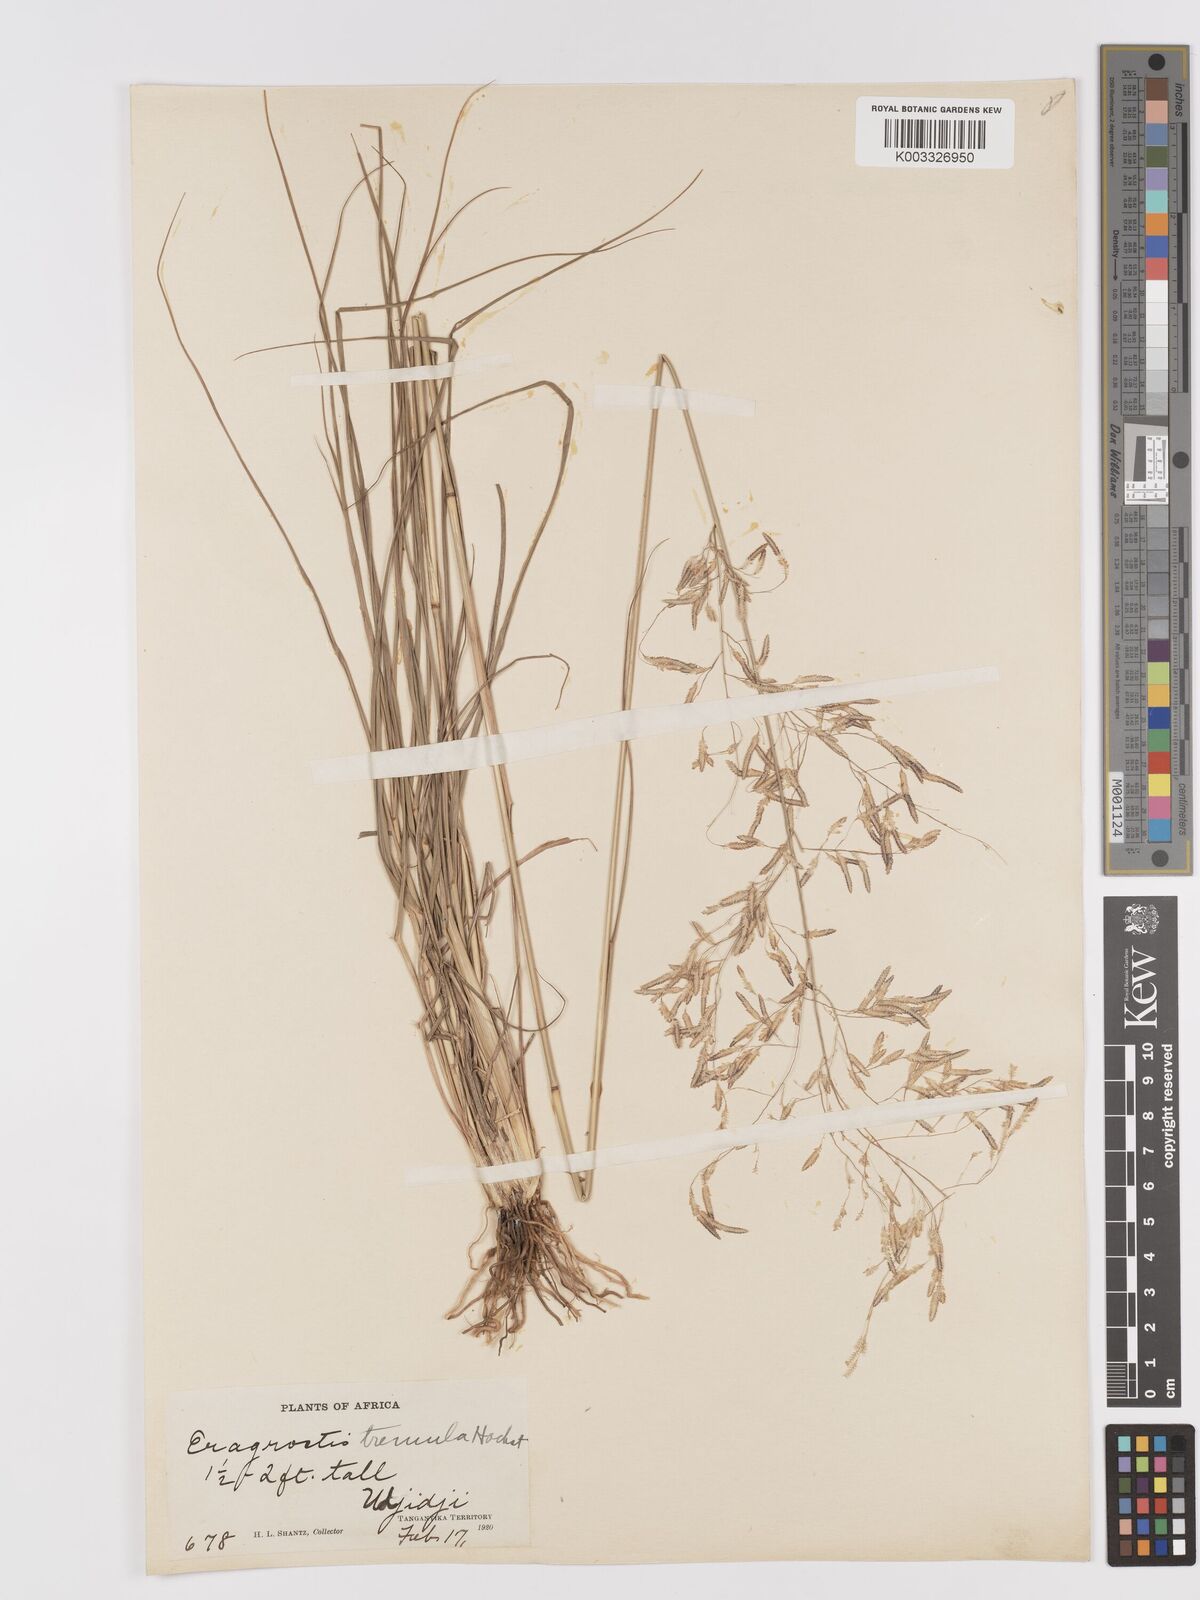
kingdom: Plantae
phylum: Tracheophyta
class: Liliopsida
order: Poales
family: Poaceae
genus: Eragrostis
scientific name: Eragrostis tremula
